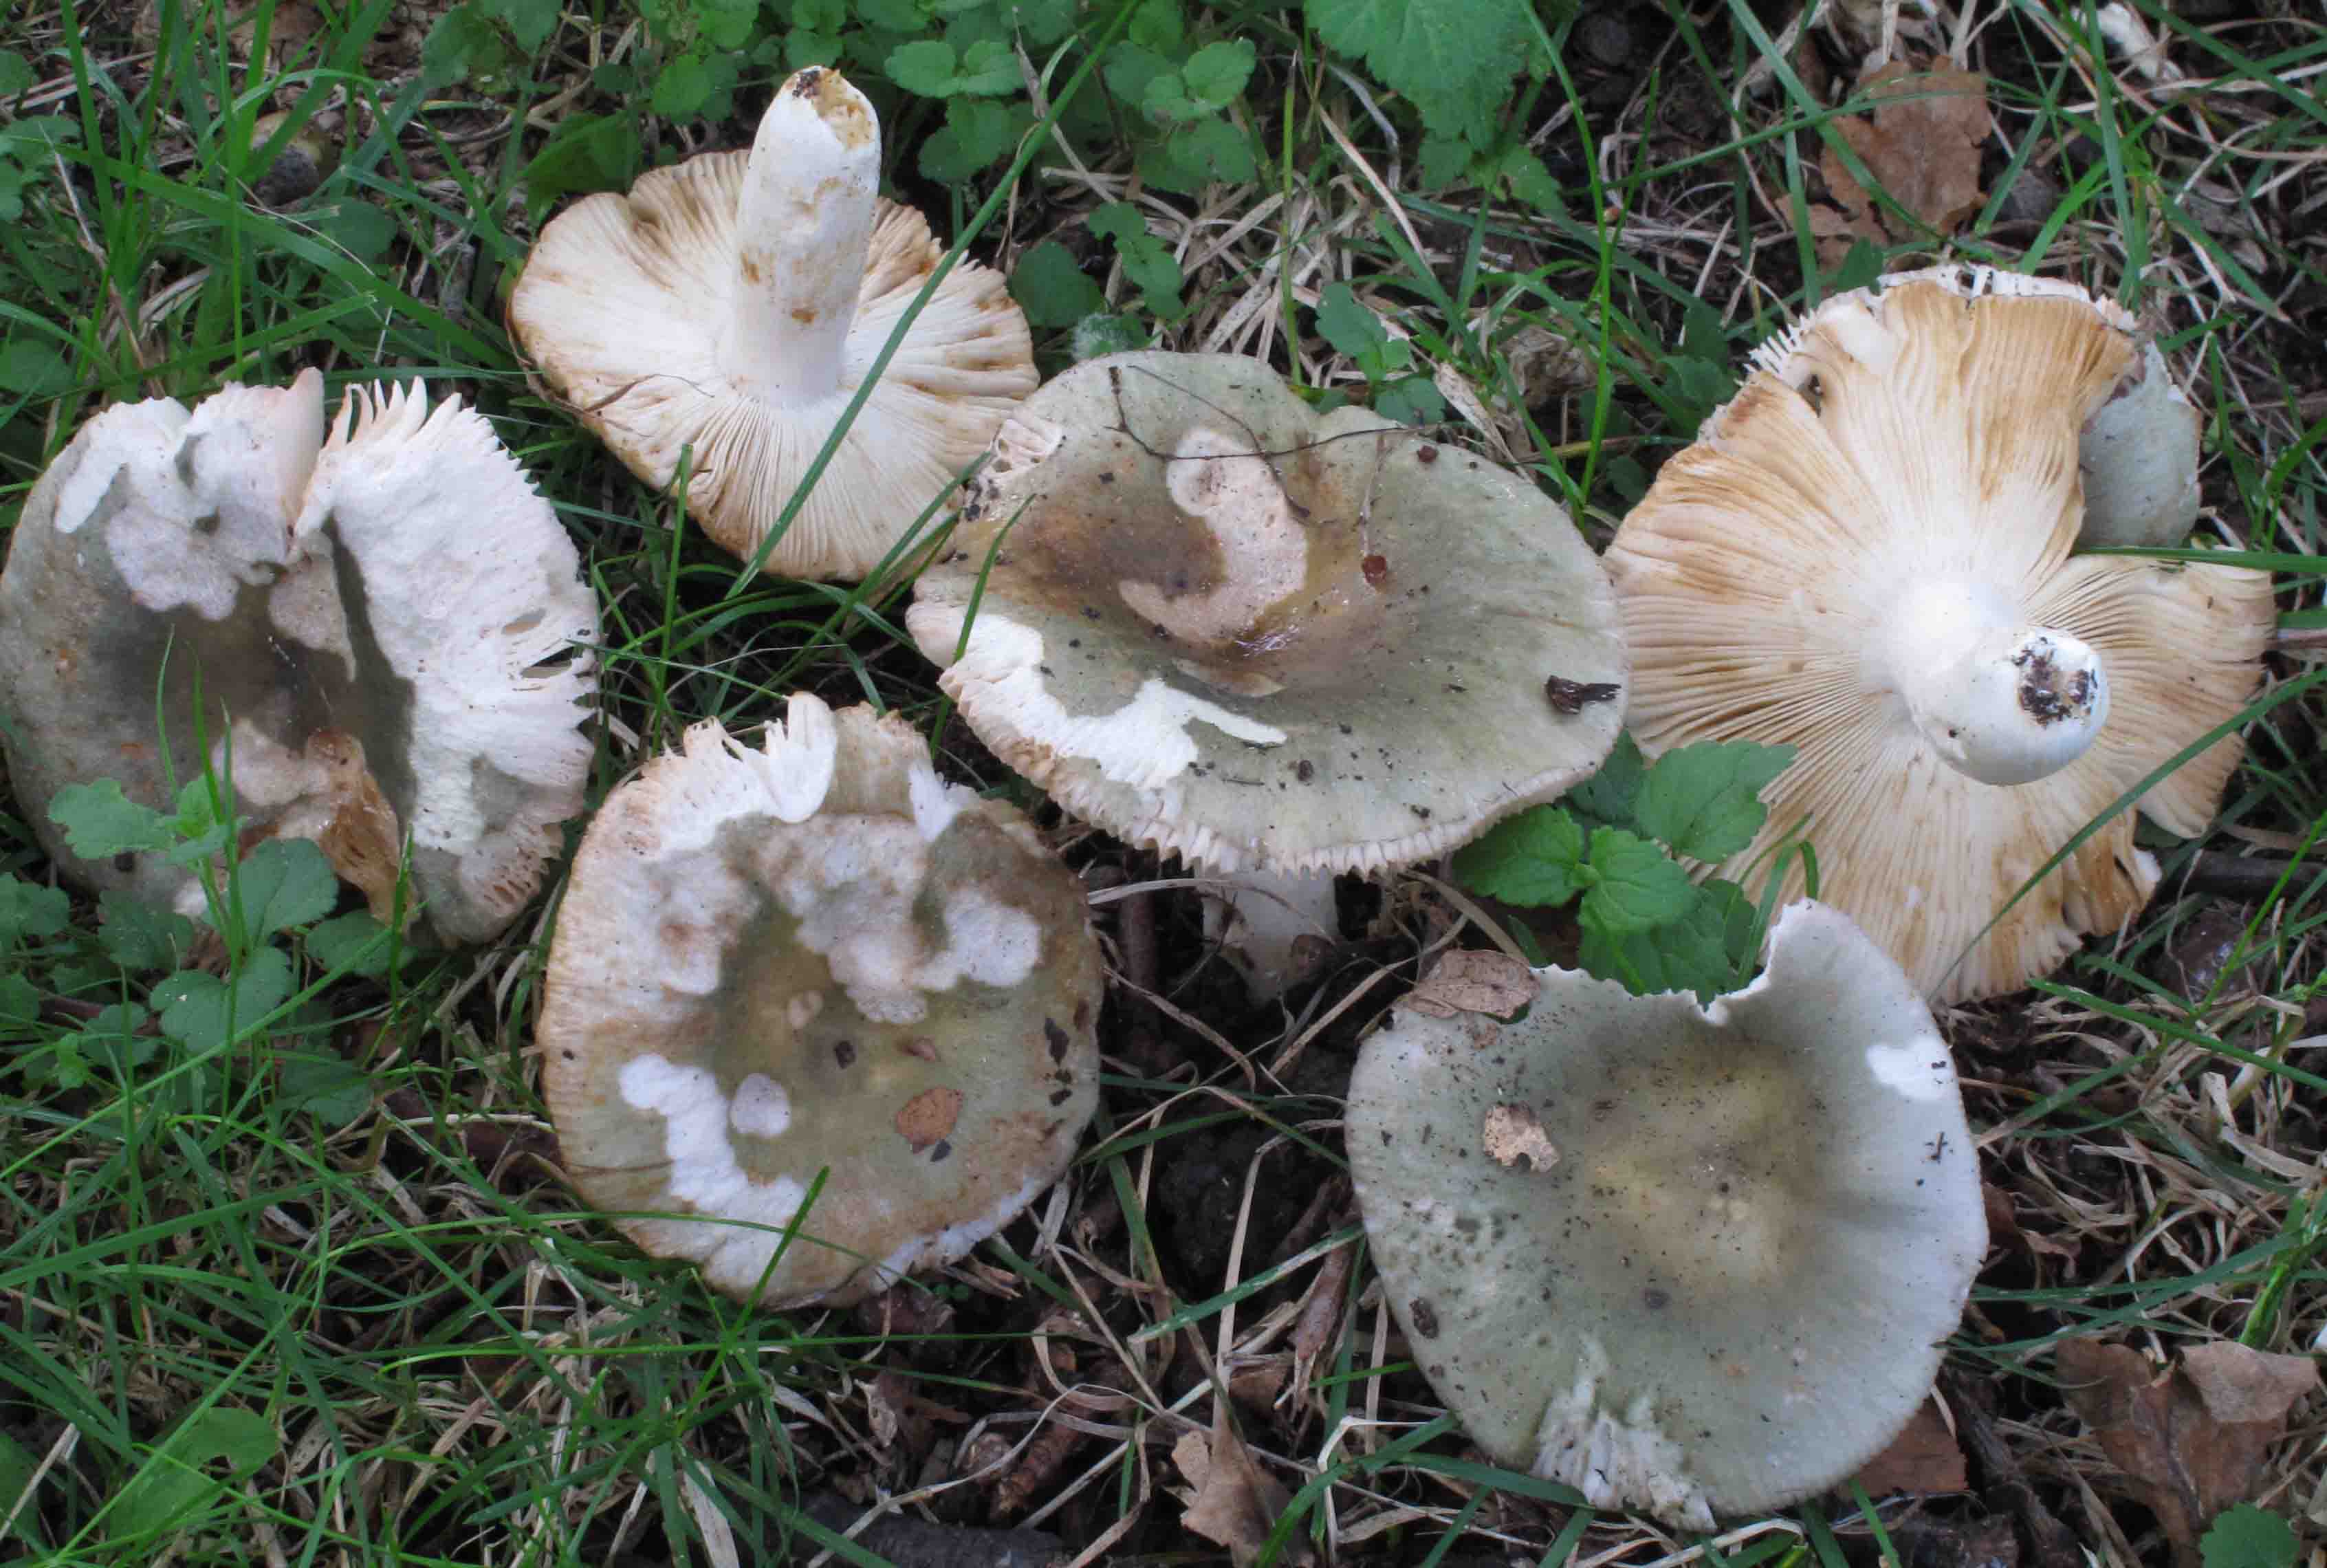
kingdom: Fungi
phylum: Basidiomycota
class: Agaricomycetes
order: Russulales
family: Russulaceae
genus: Russula
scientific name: Russula
